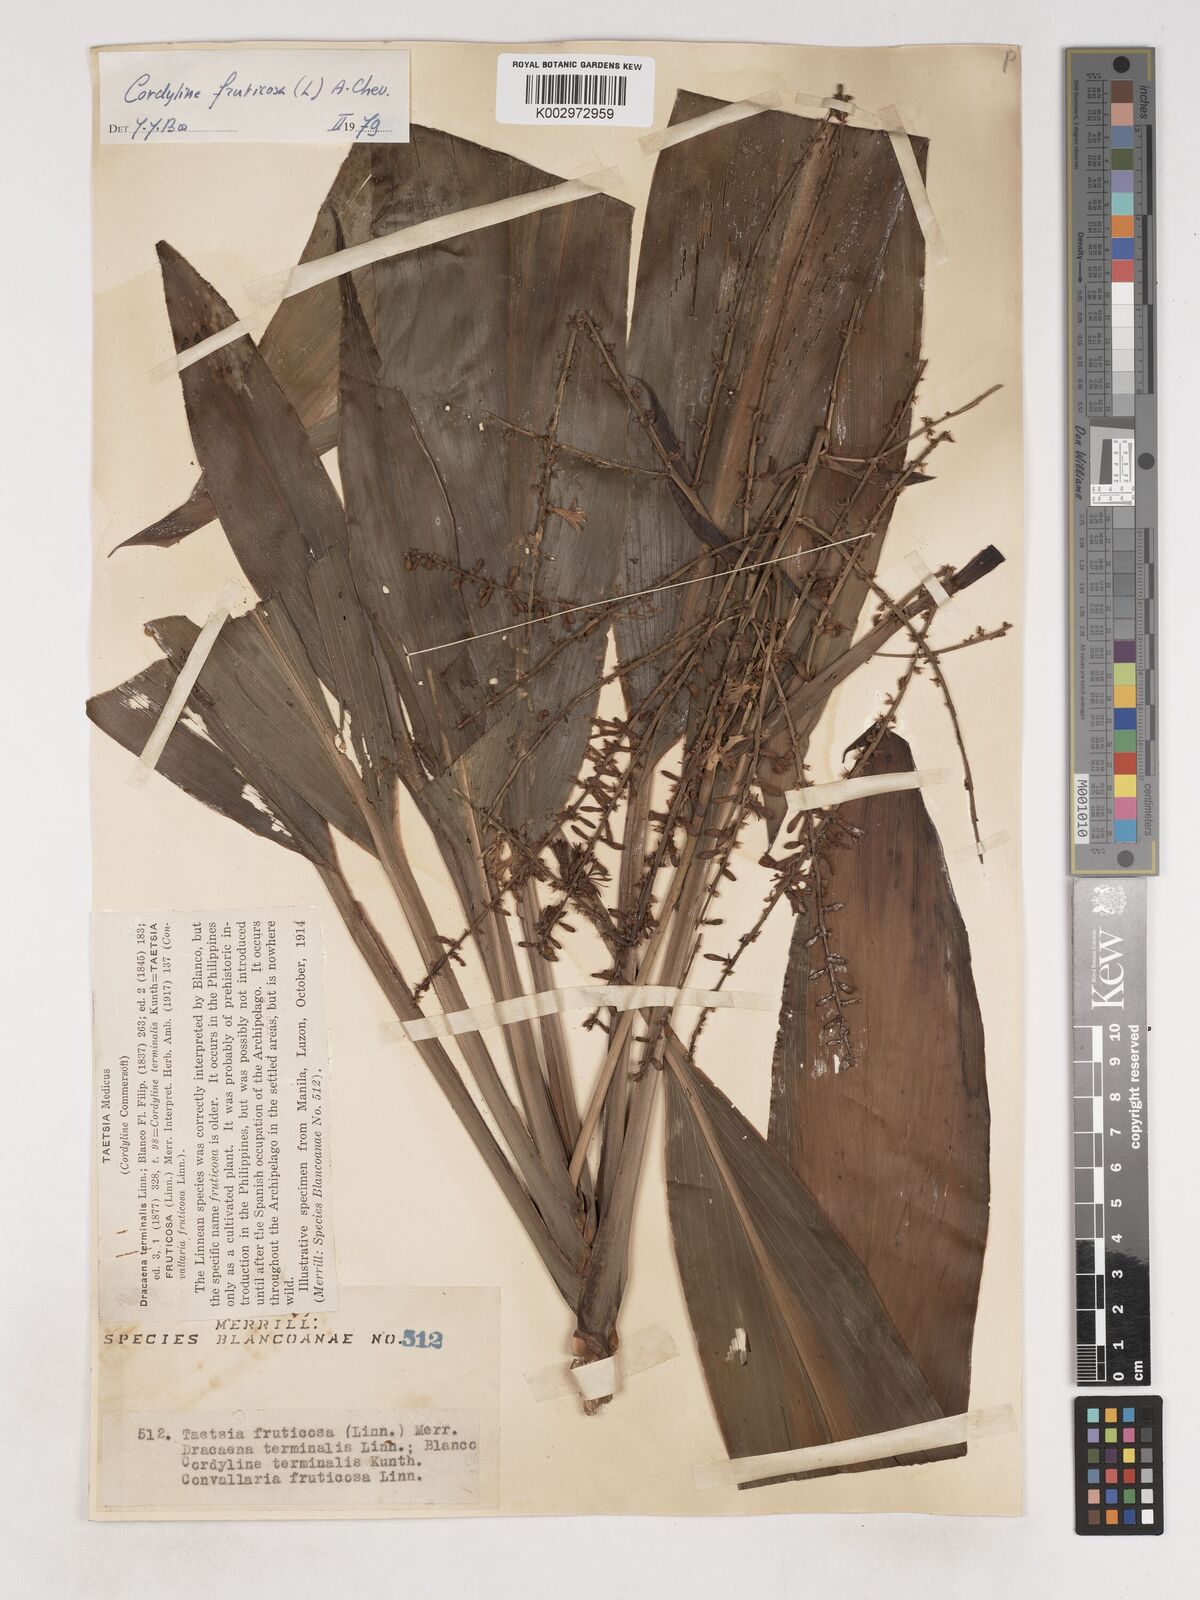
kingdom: Plantae
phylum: Tracheophyta
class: Liliopsida
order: Asparagales
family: Asparagaceae
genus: Cordyline
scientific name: Cordyline fruticosa
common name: Good-luck-plant
